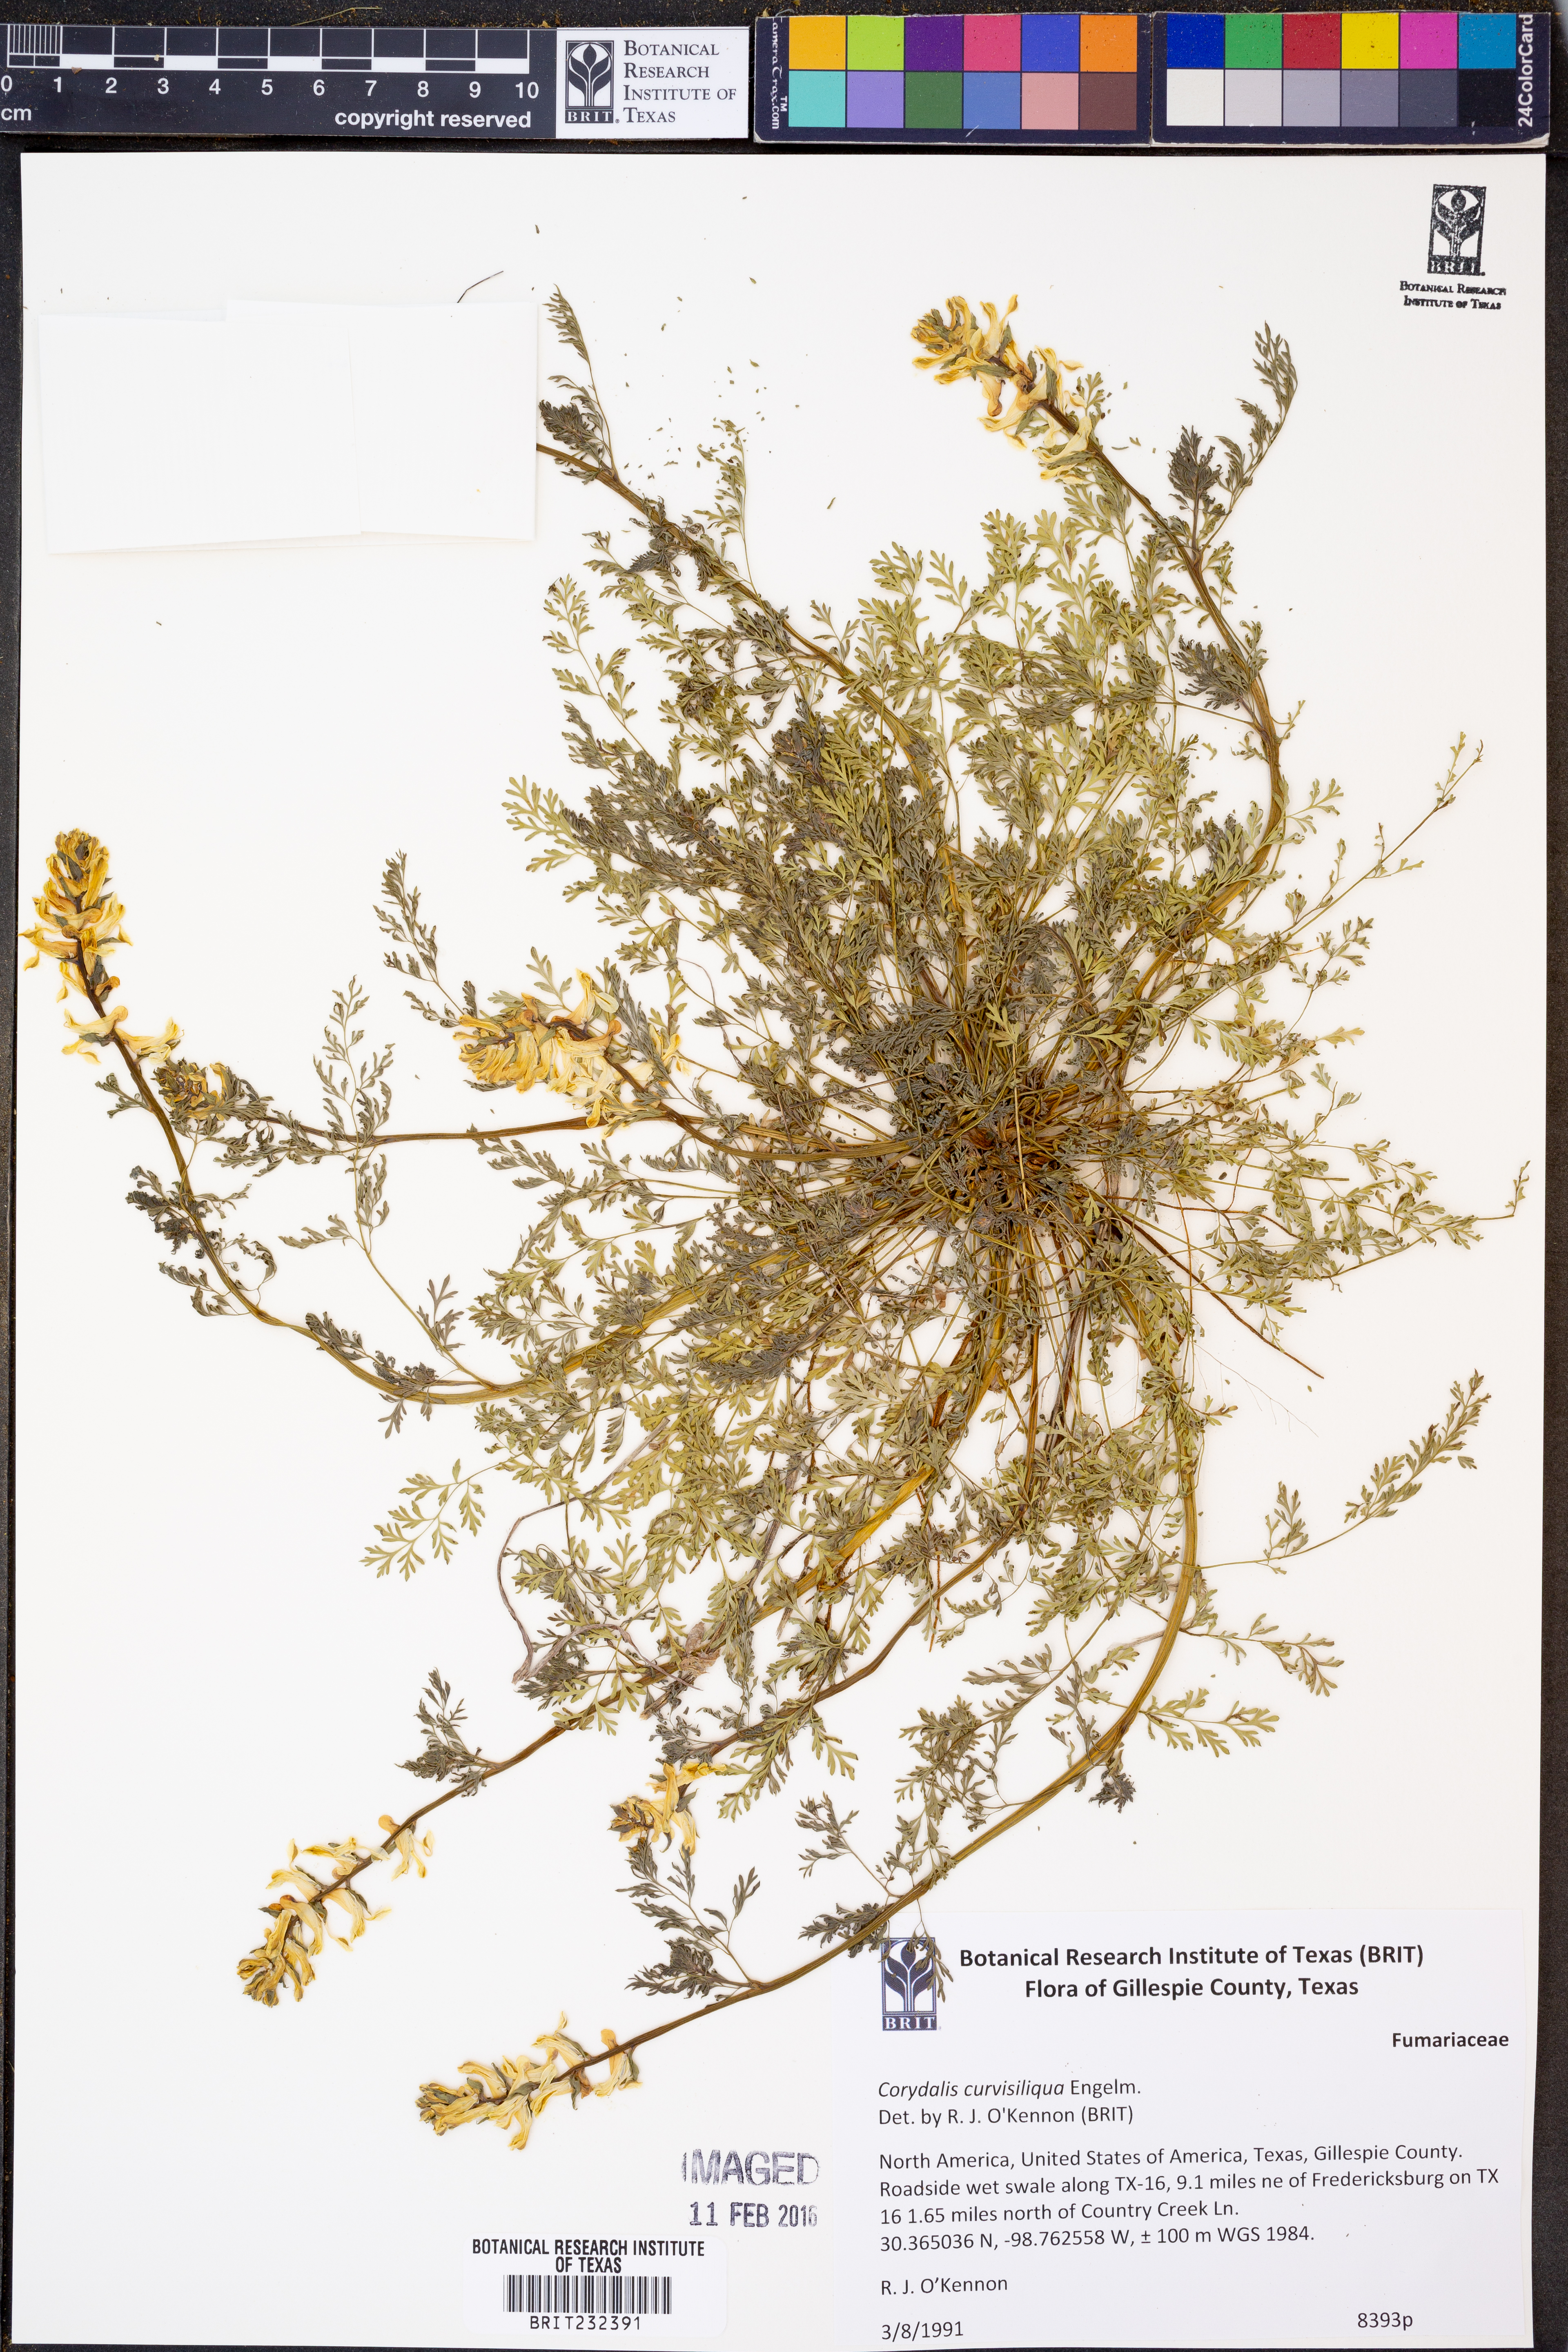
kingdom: Plantae
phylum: Tracheophyta
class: Magnoliopsida
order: Ranunculales
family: Papaveraceae
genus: Corydalis
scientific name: Corydalis curvisiliqua
